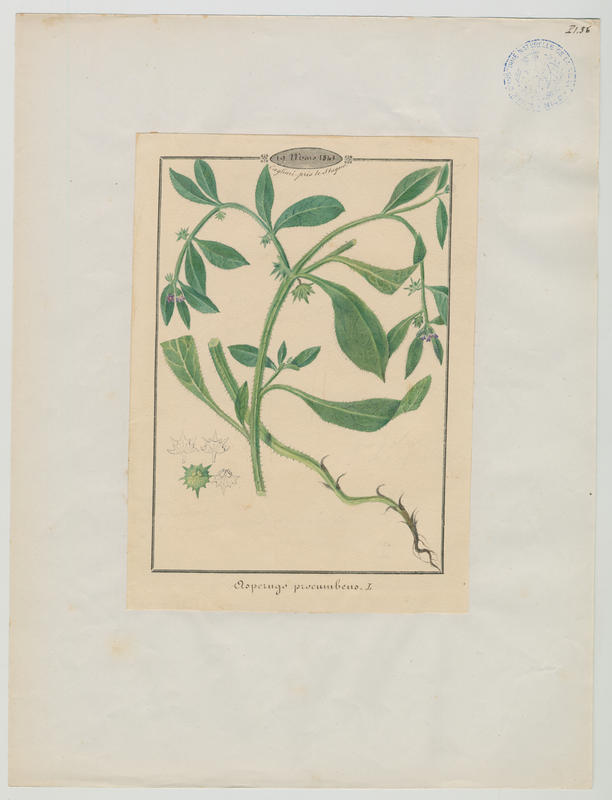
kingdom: Plantae
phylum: Tracheophyta
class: Magnoliopsida
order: Boraginales
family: Boraginaceae
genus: Asperugo
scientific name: Asperugo procumbens
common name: Madwort
